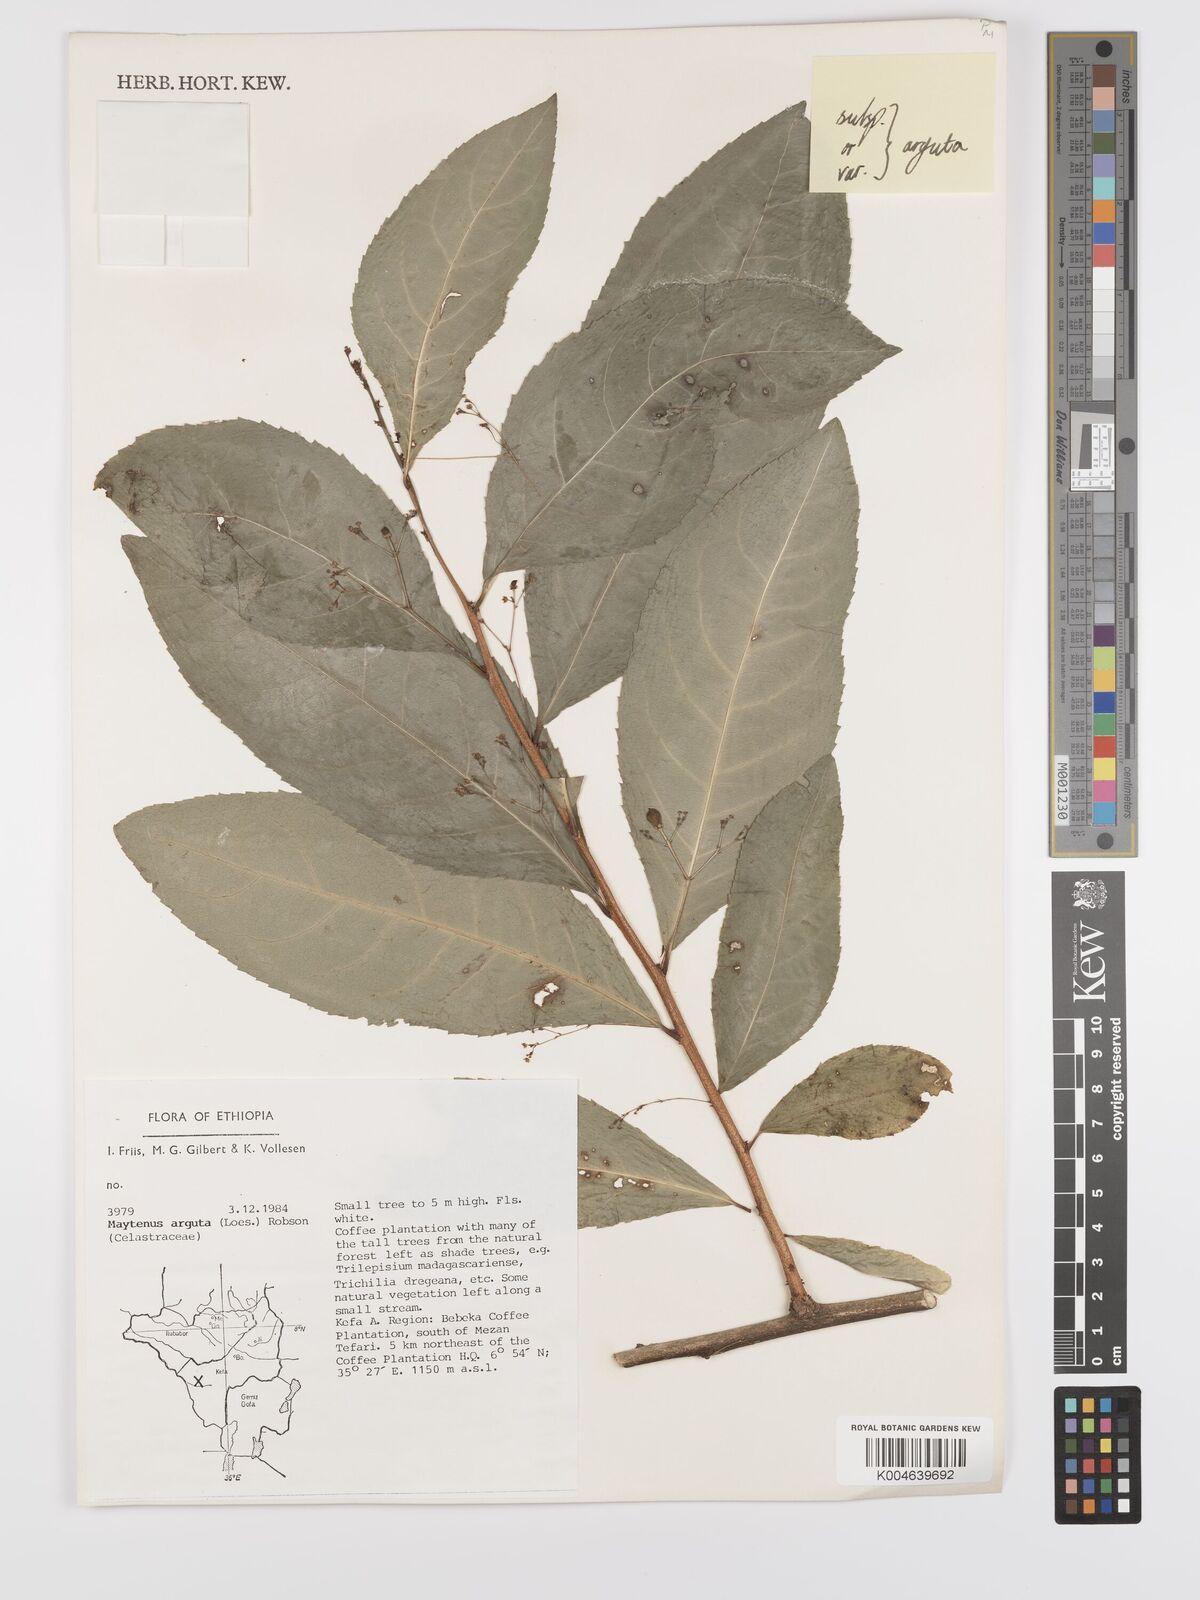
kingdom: Plantae
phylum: Tracheophyta
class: Magnoliopsida
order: Celastrales
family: Celastraceae
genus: Gymnosporia
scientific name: Gymnosporia gracilipes
